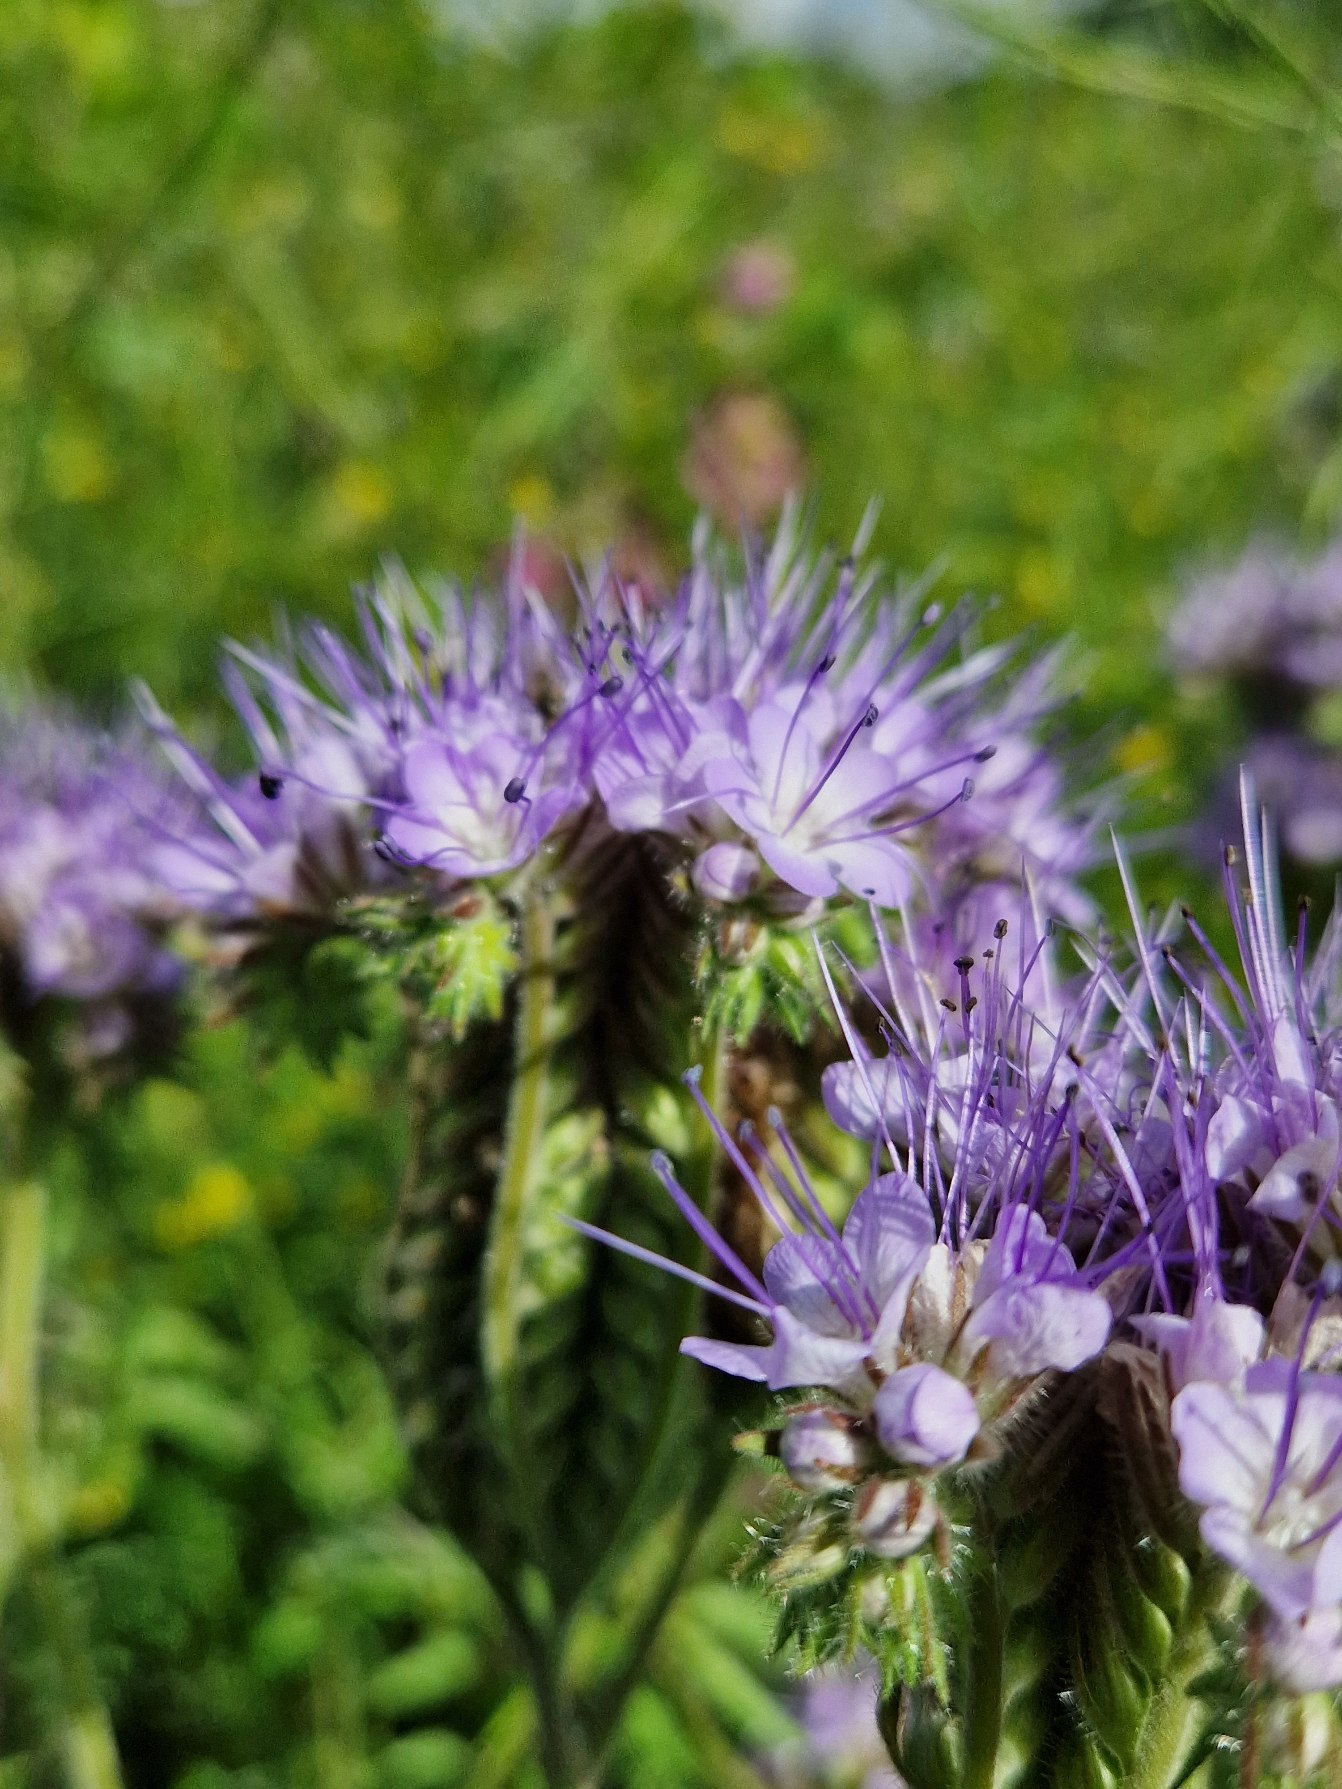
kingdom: Plantae
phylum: Tracheophyta
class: Magnoliopsida
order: Boraginales
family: Hydrophyllaceae
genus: Phacelia
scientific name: Phacelia tanacetifolia
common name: Honningurt
